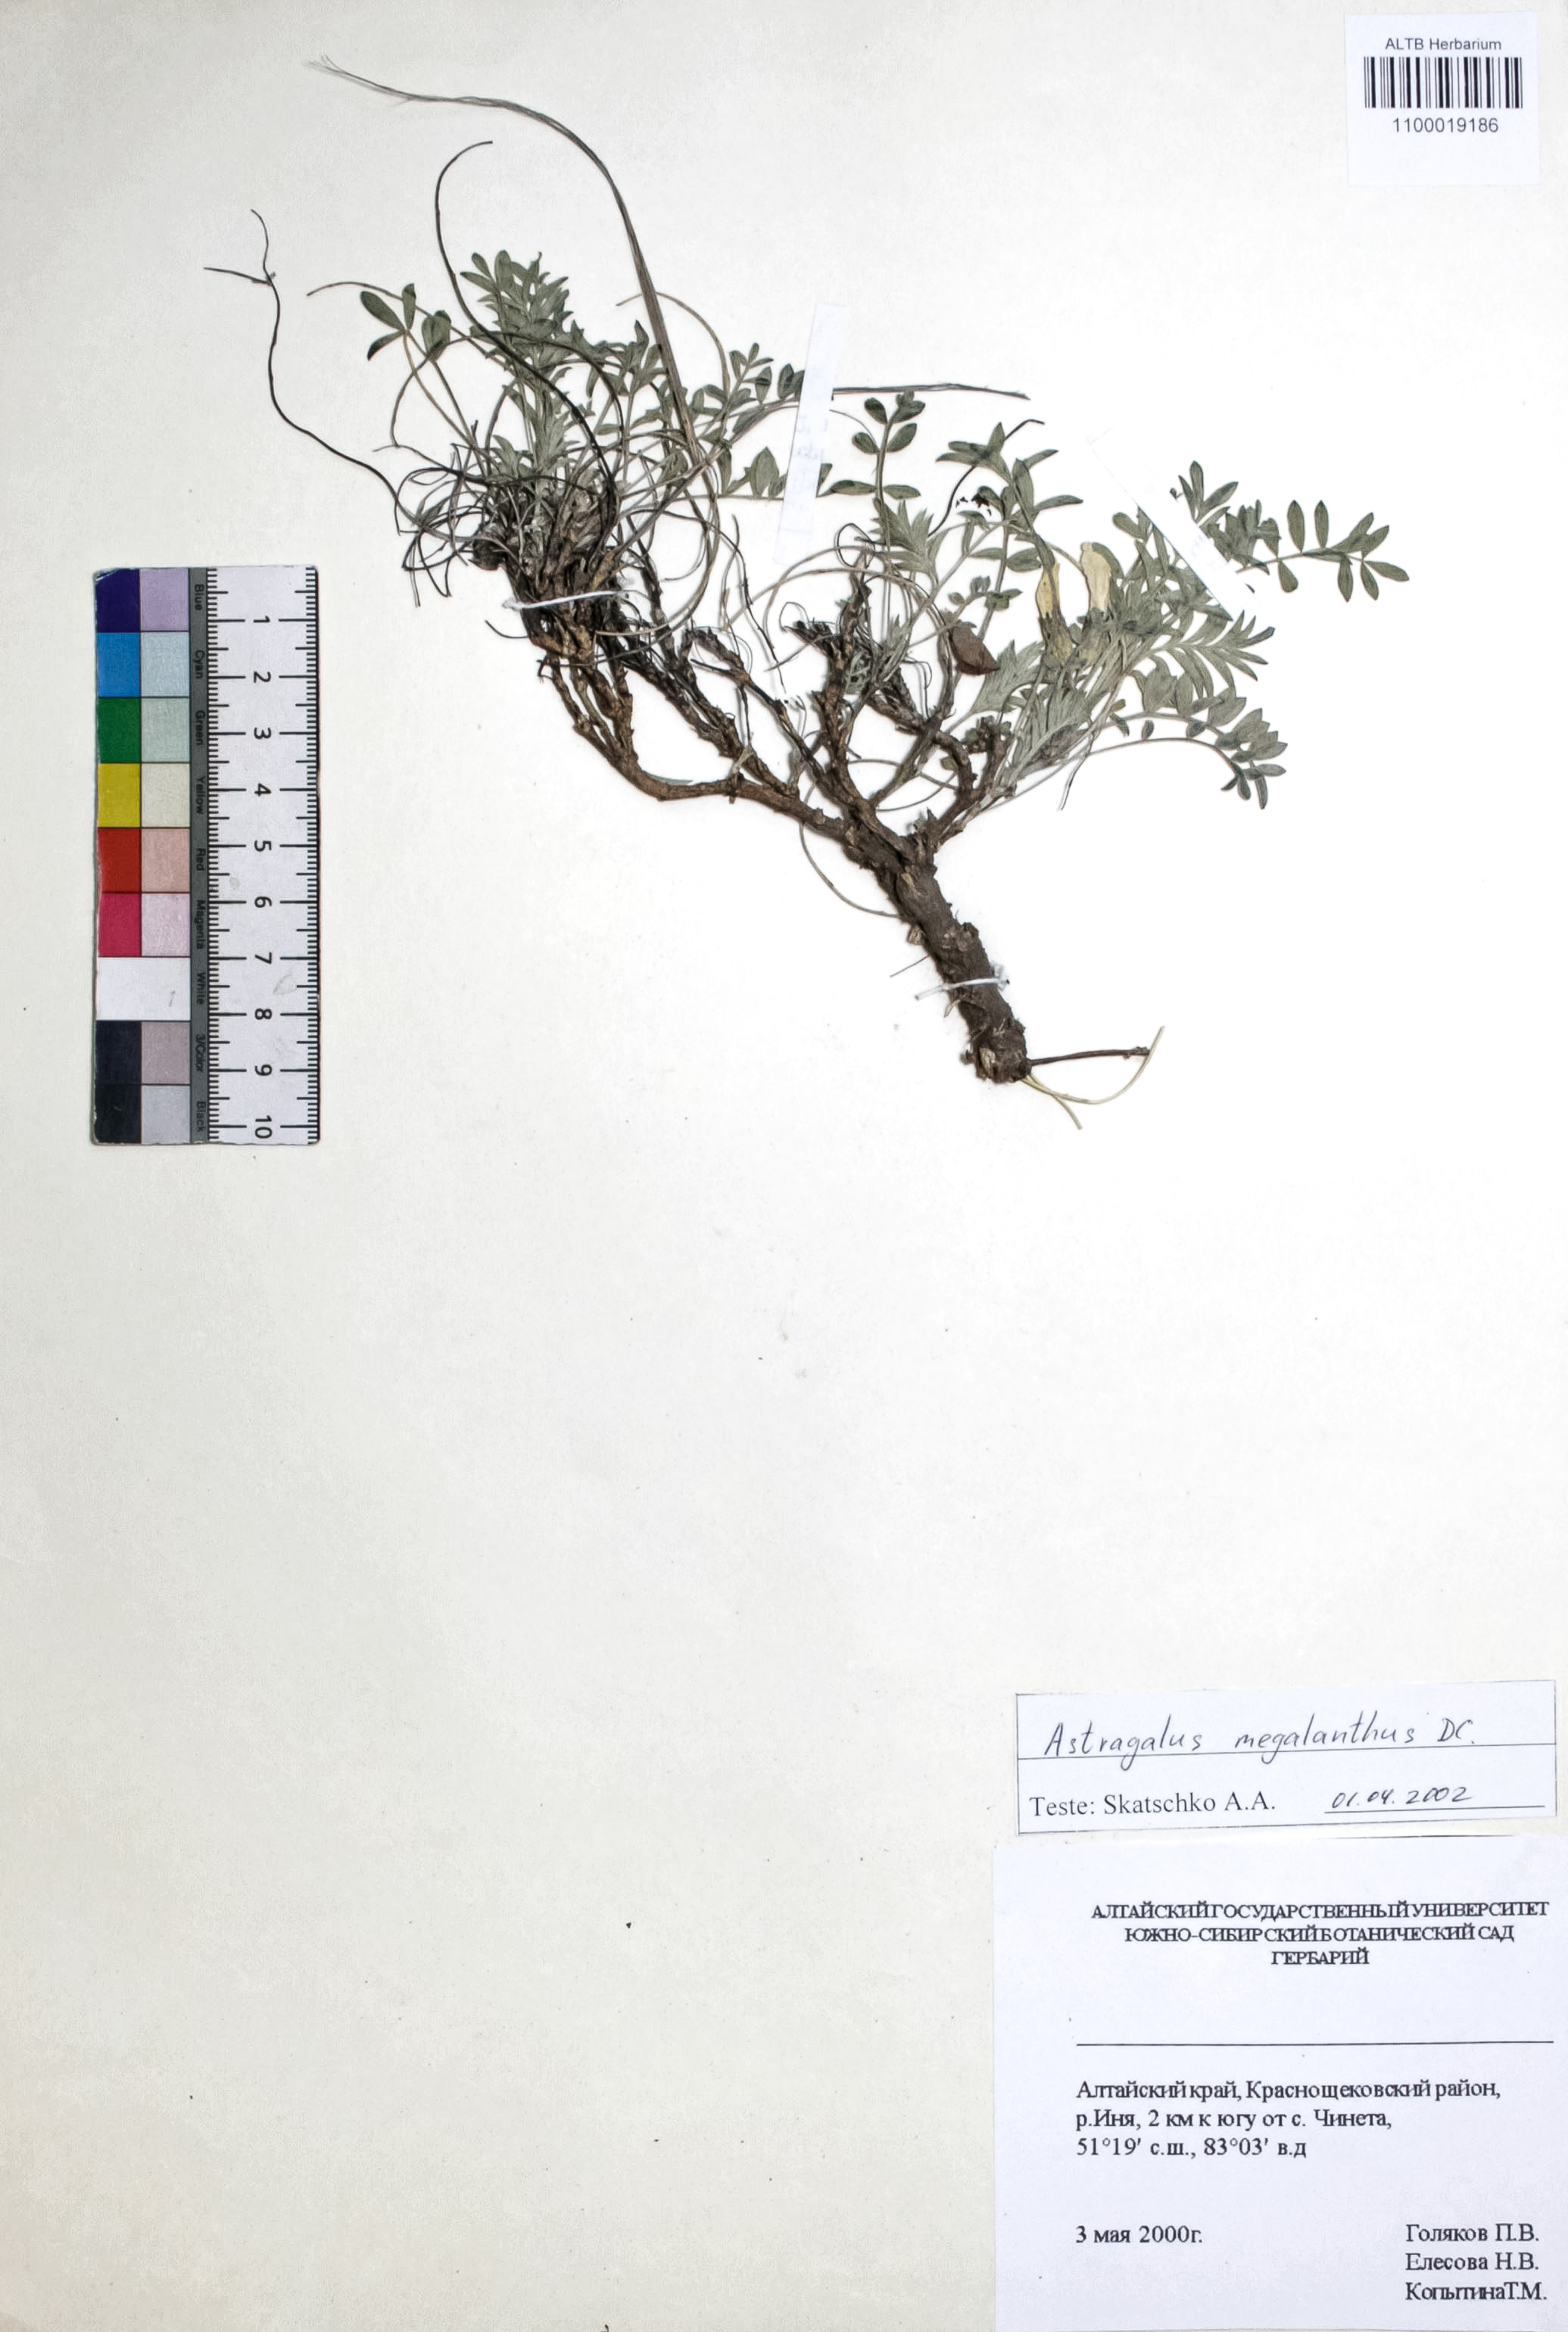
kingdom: Plantae
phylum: Tracheophyta
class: Magnoliopsida
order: Fabales
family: Fabaceae
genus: Astragalus
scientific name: Astragalus leptostachys
